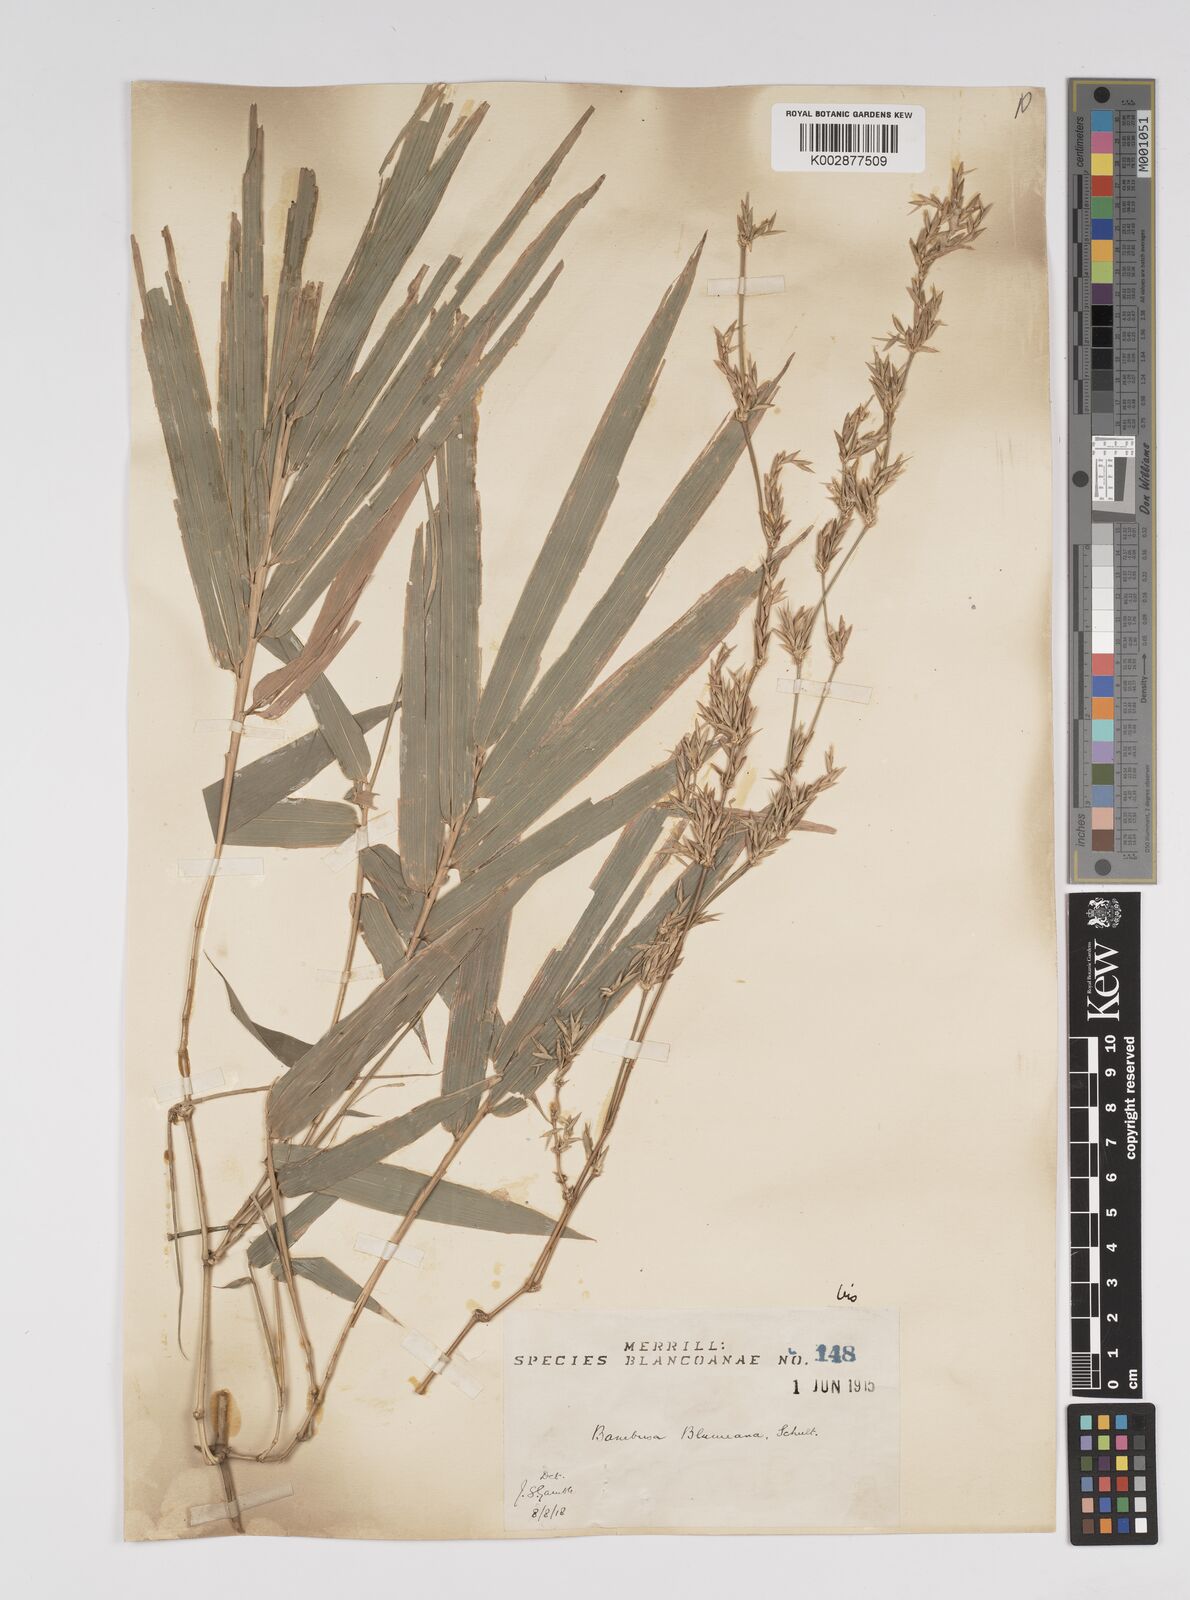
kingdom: Plantae
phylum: Tracheophyta
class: Liliopsida
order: Poales
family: Poaceae
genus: Bambusa
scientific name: Bambusa spinosa
